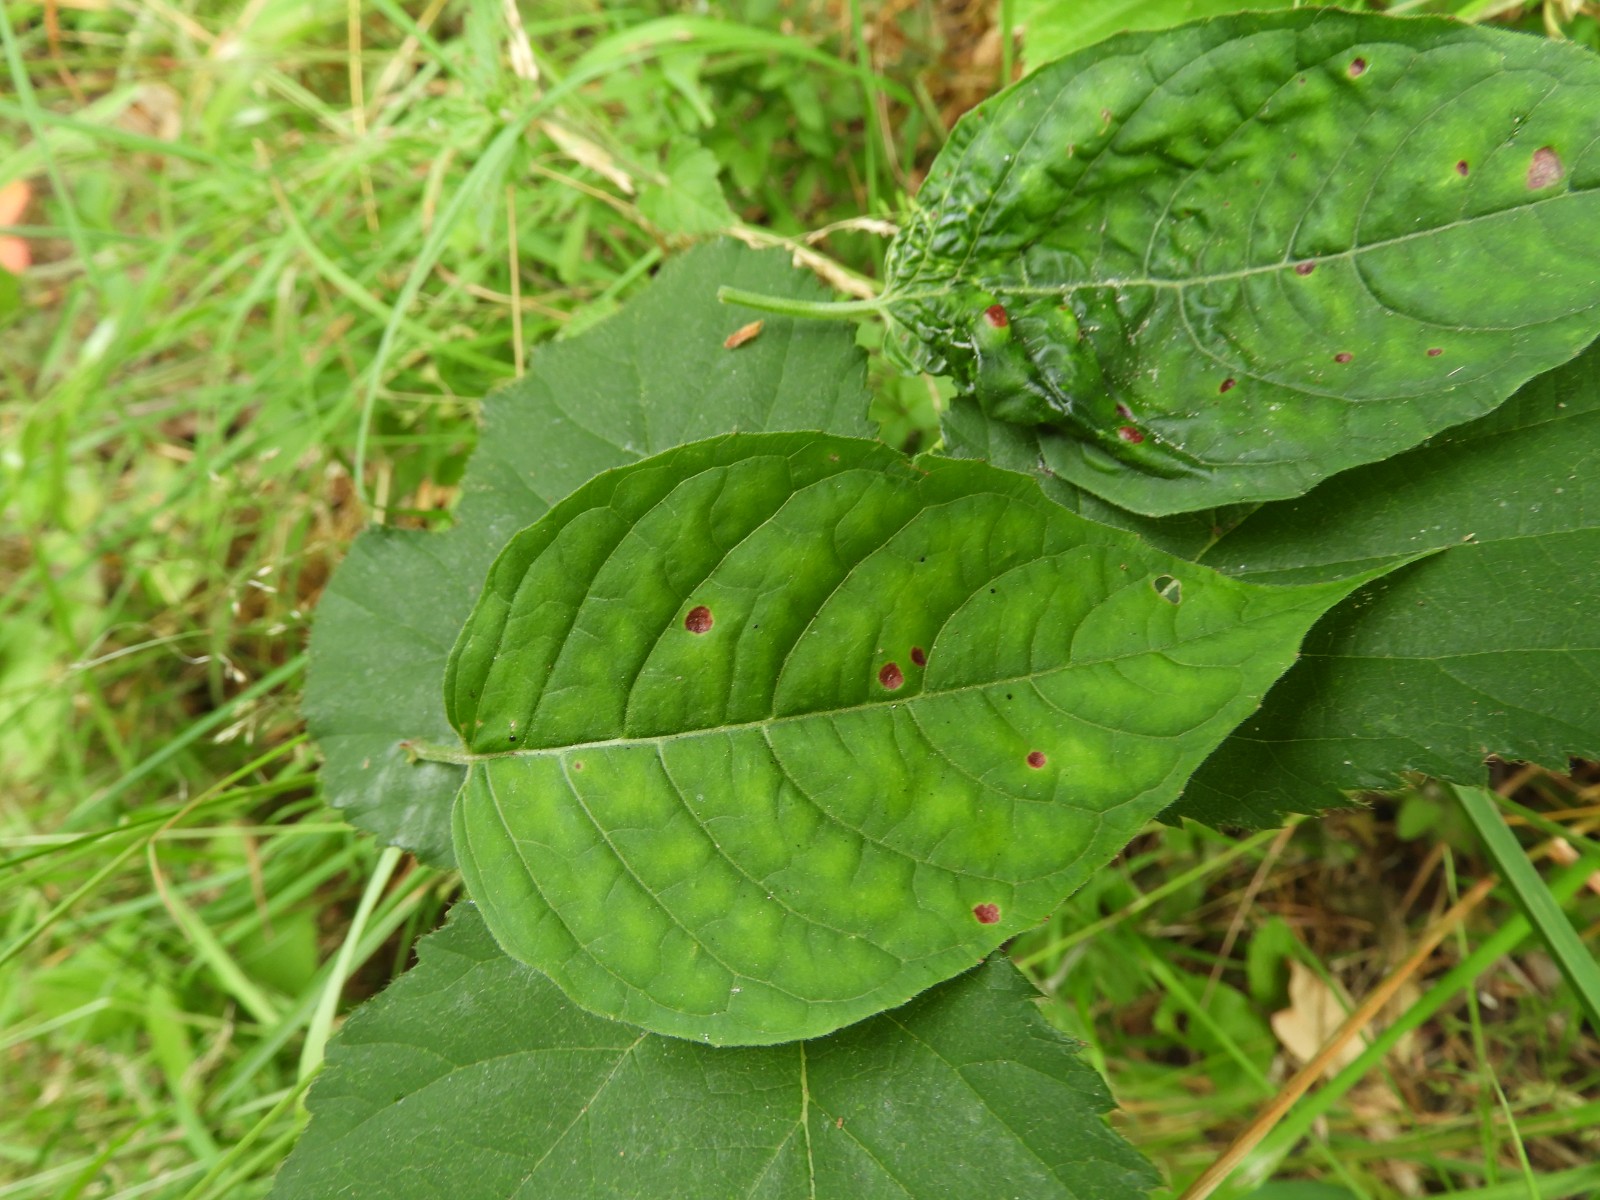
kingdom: Fungi
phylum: Basidiomycota
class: Pucciniomycetes
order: Pucciniales
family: Pucciniaceae
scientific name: Pucciniaceae
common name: rustsvampfamilien
